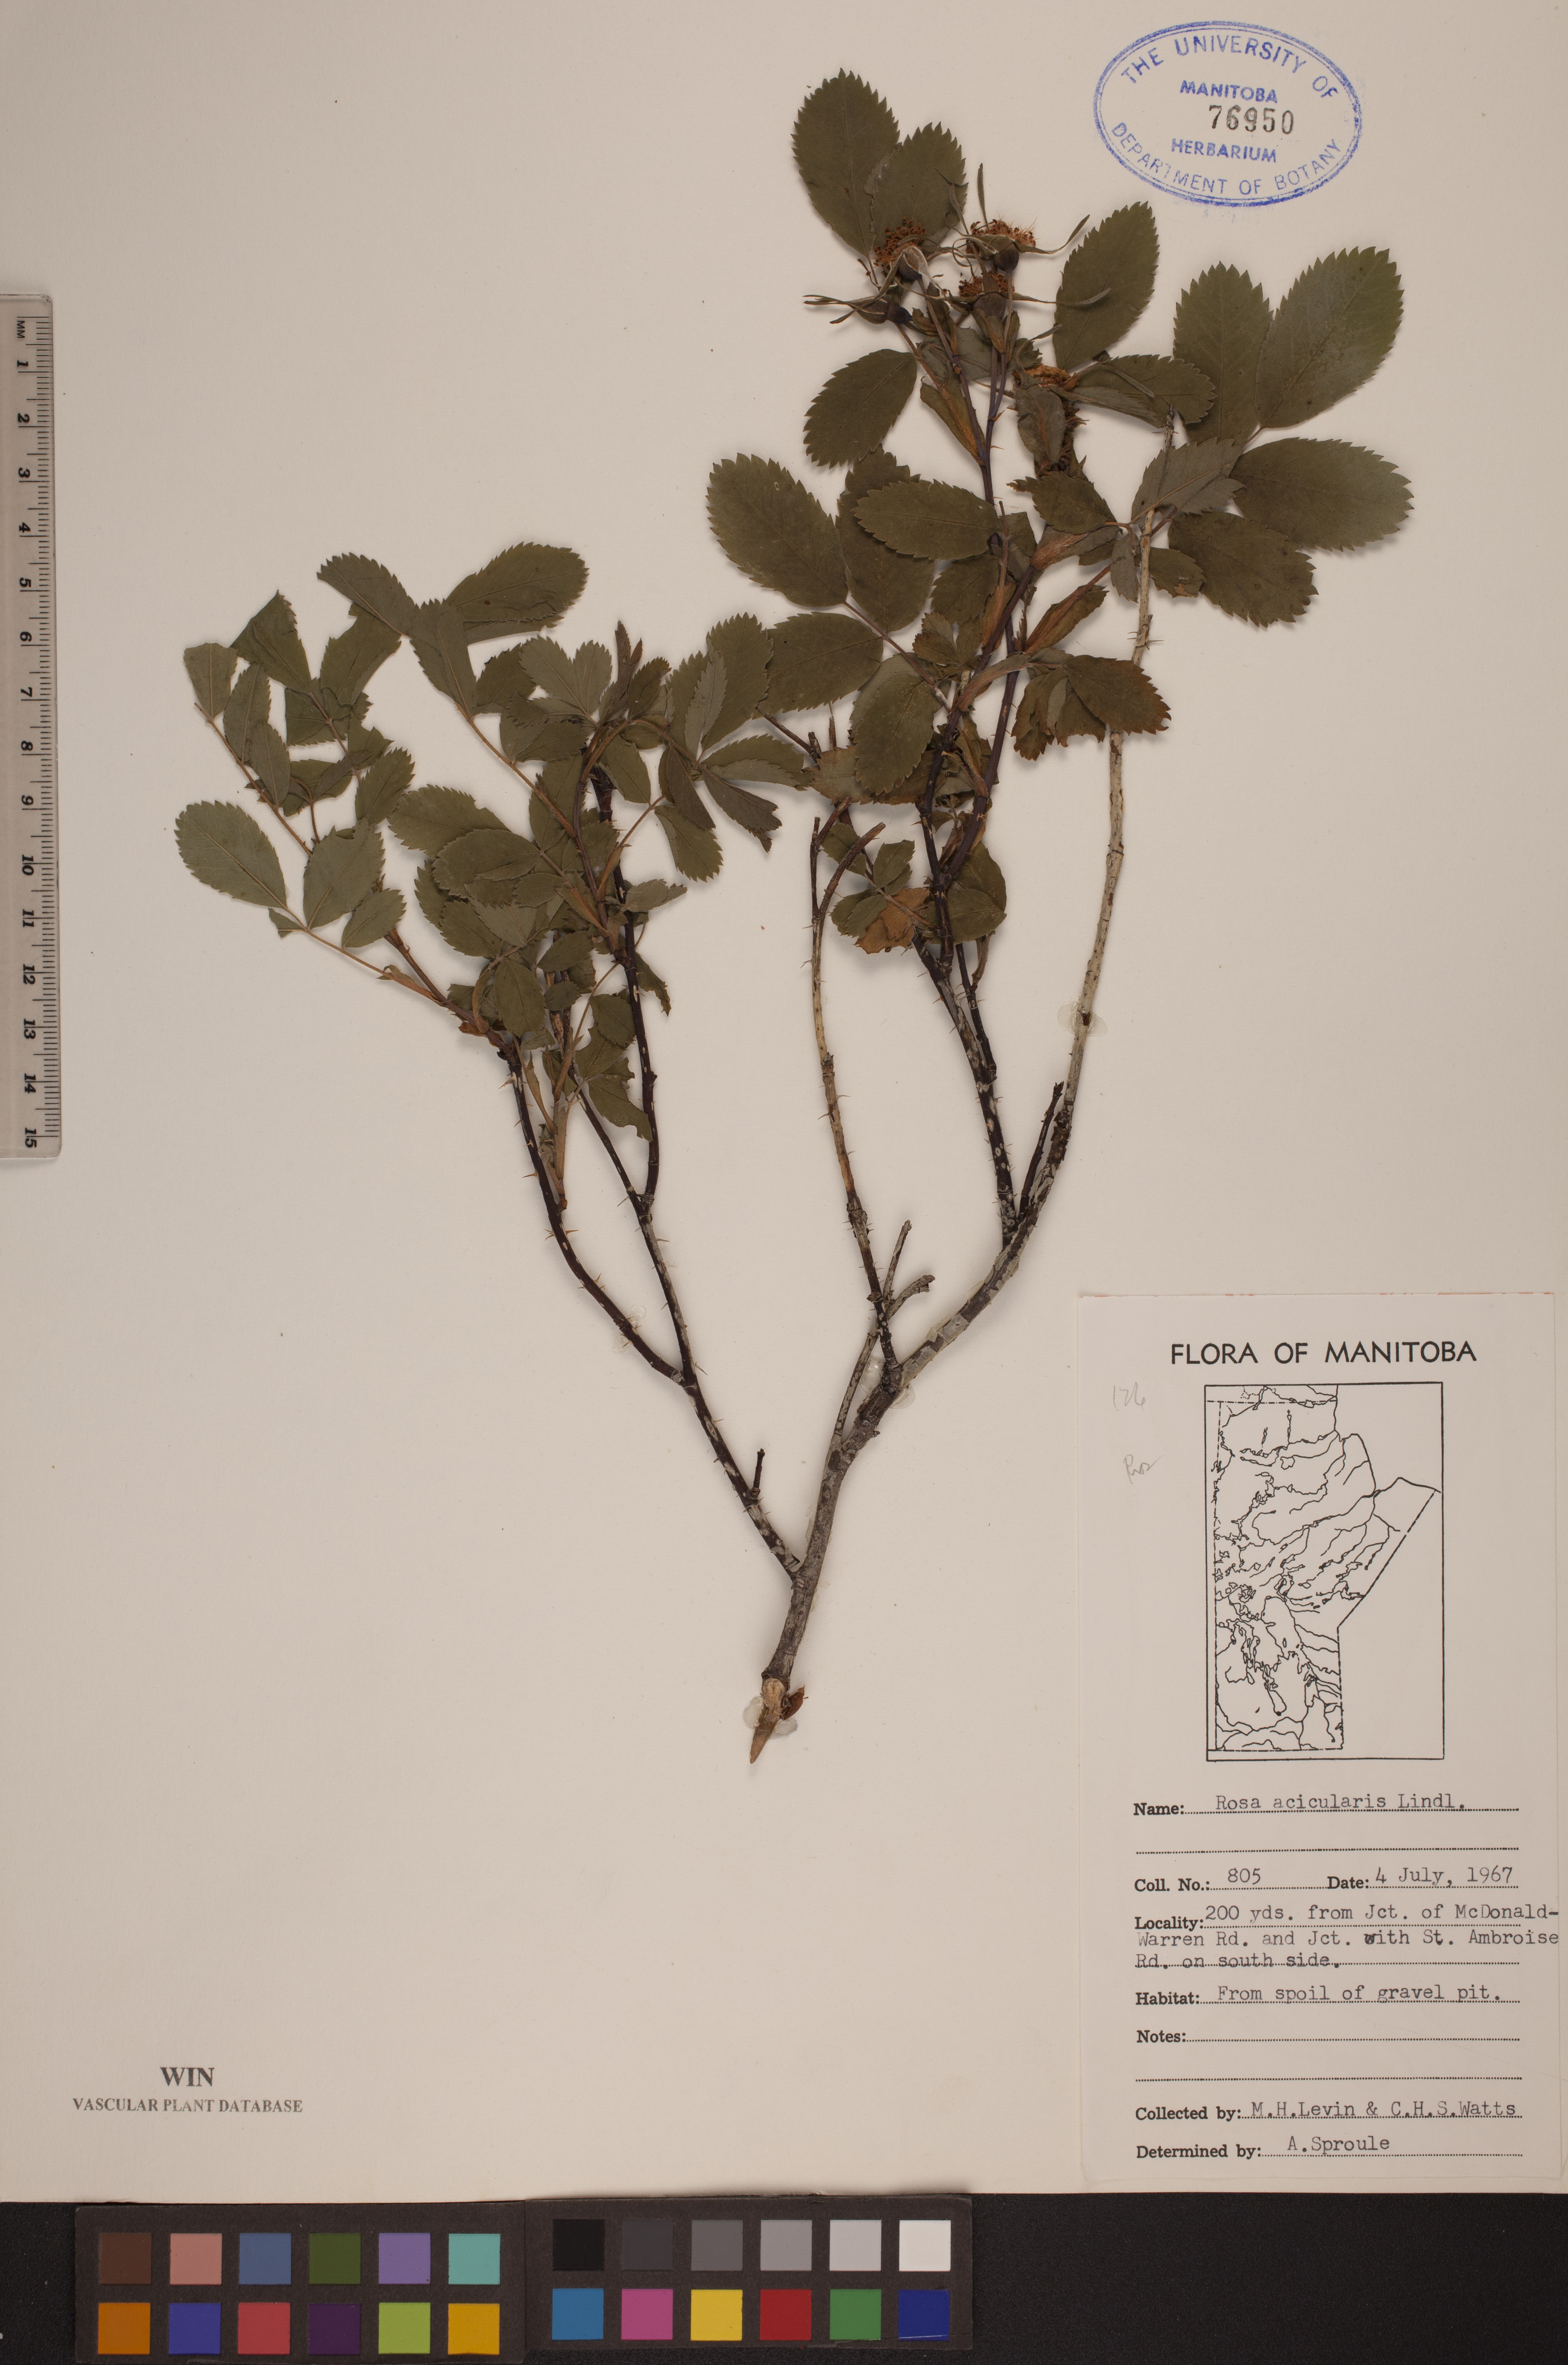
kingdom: Plantae
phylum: Tracheophyta
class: Magnoliopsida
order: Rosales
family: Rosaceae
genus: Rosa
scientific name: Rosa acicularis
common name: Prickly rose
